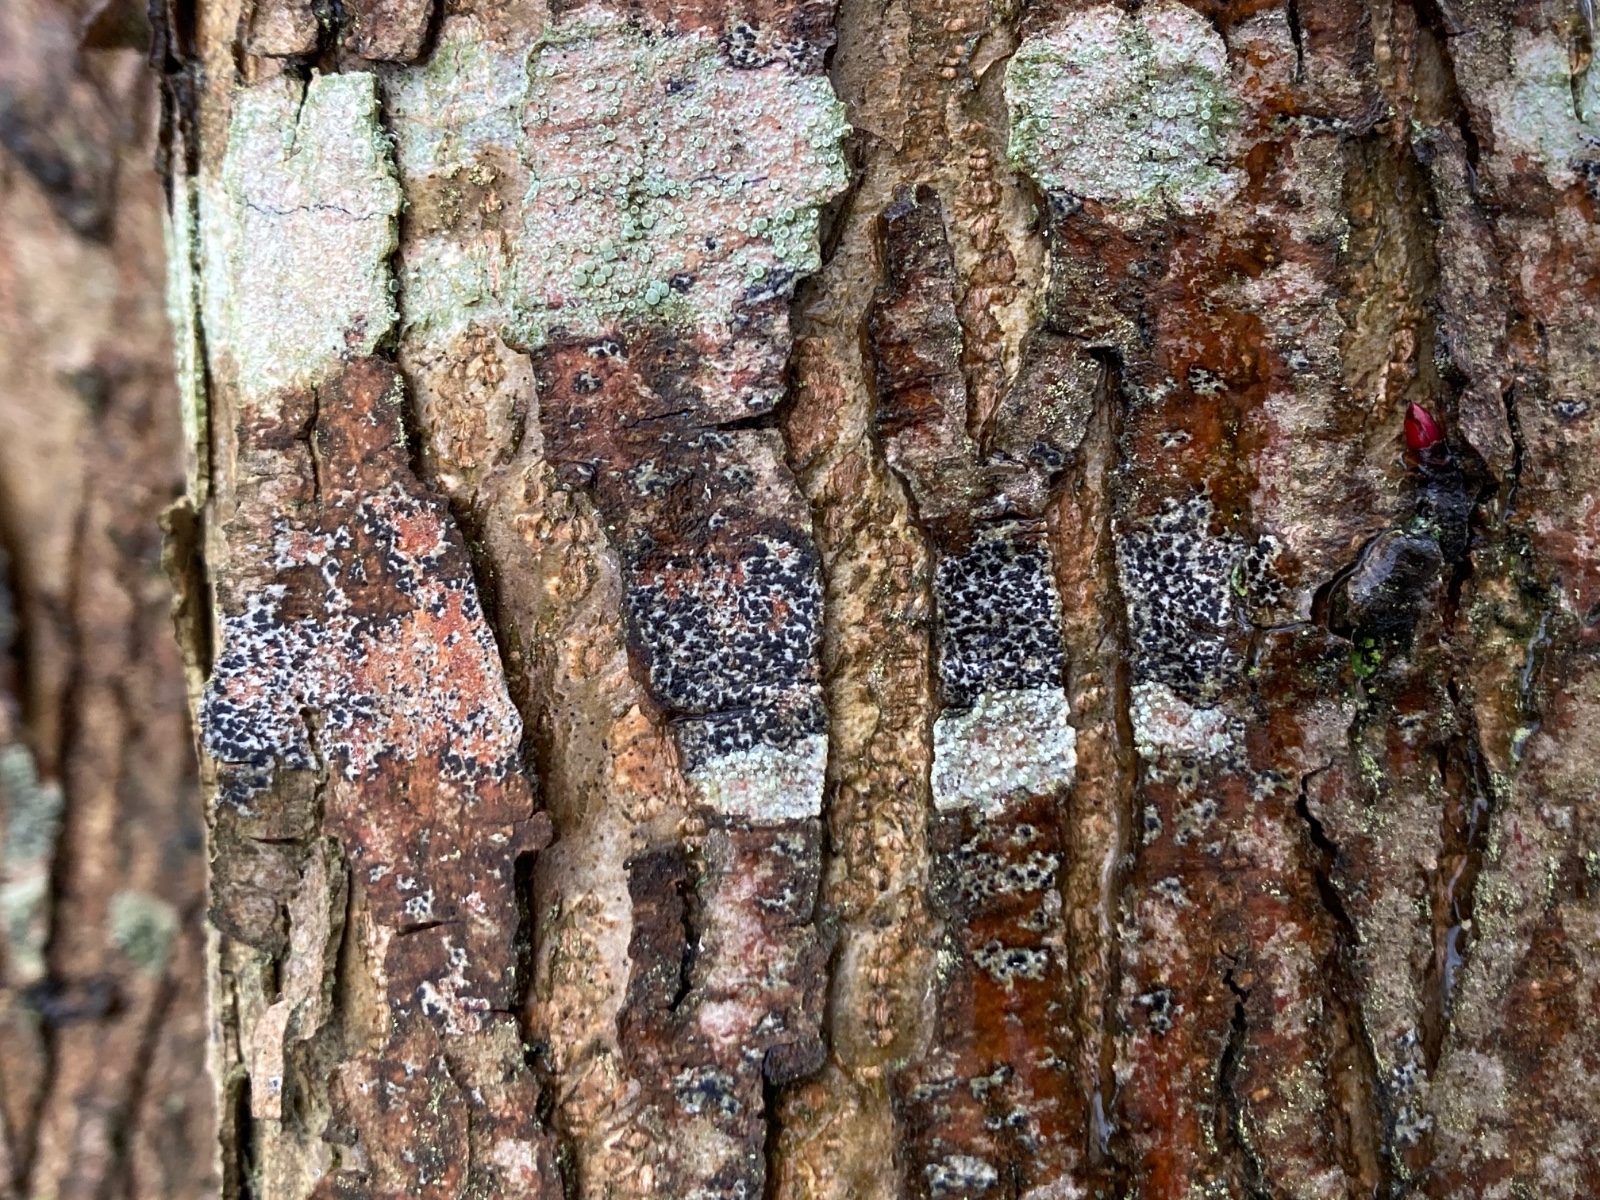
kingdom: Fungi
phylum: Ascomycota
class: Arthoniomycetes
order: Arthoniales
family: Arthoniaceae
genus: Arthonia
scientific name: Arthonia radiata
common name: stjerne-pletlav
